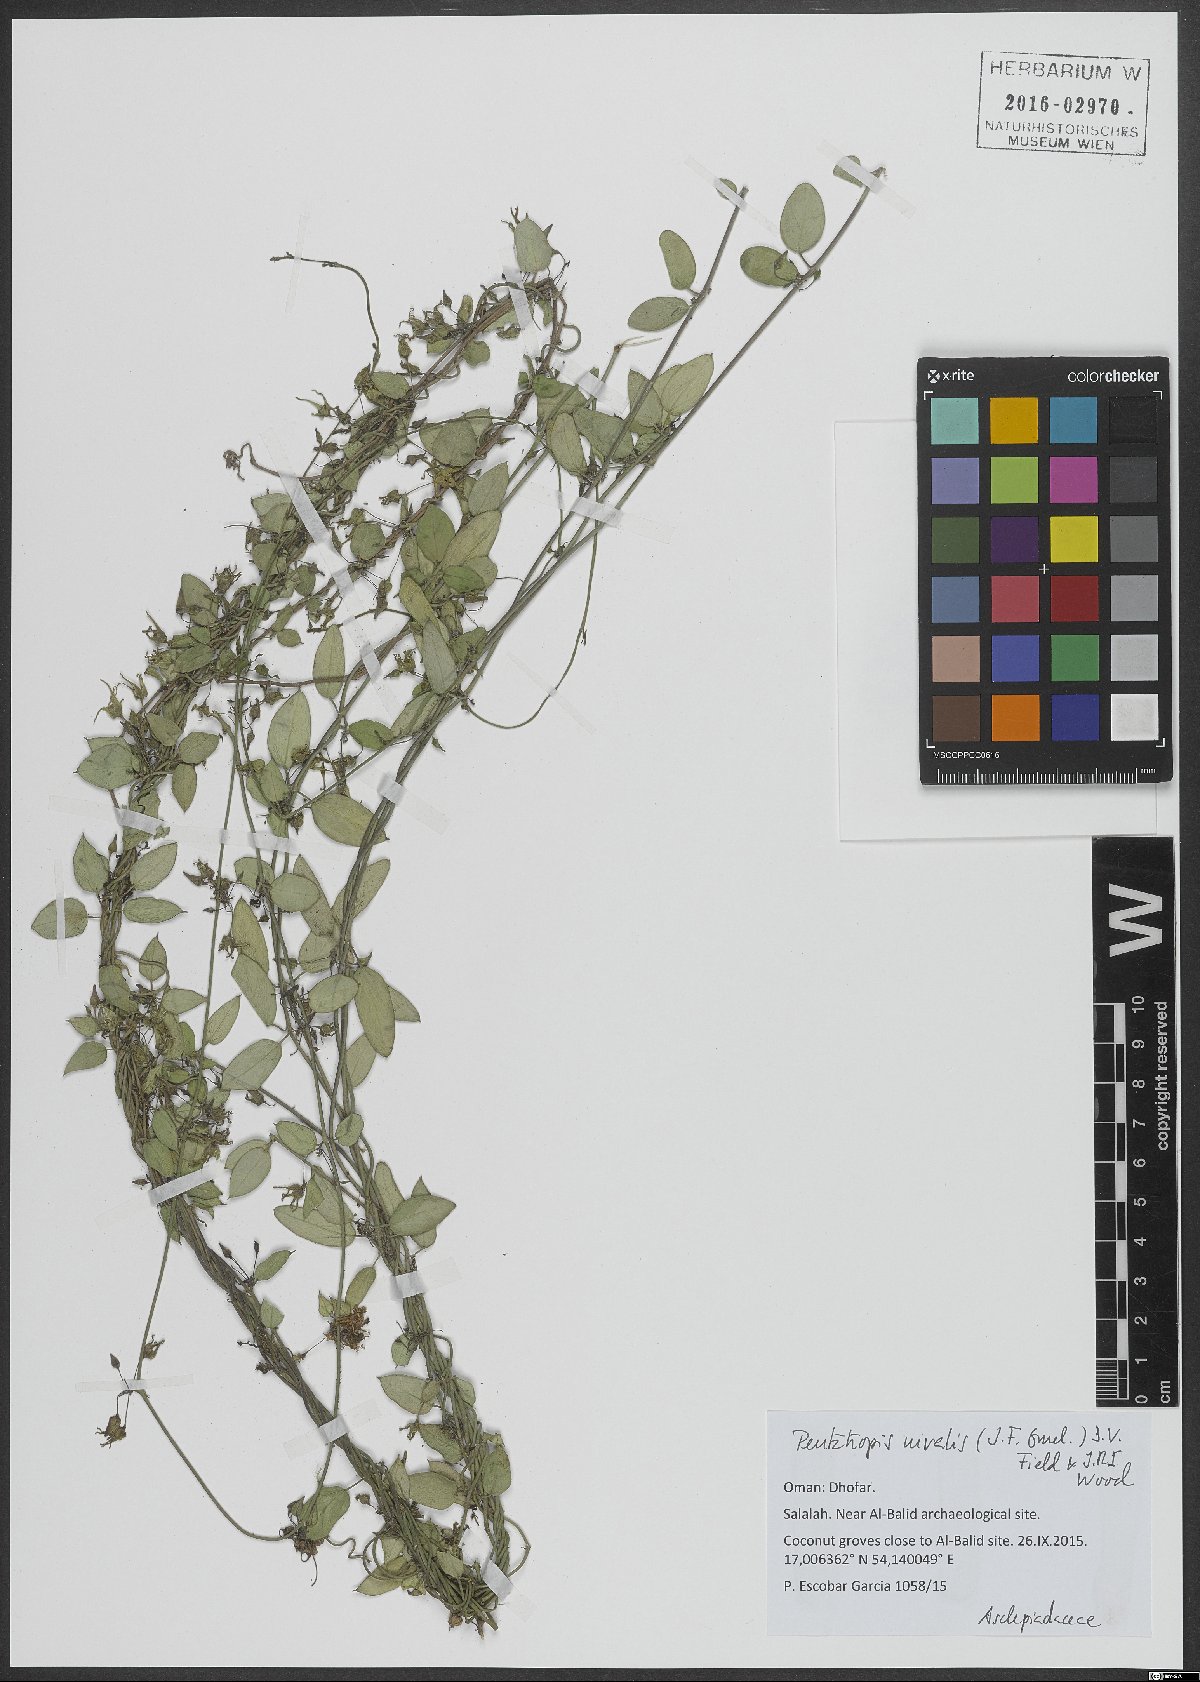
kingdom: Plantae
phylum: Tracheophyta
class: Magnoliopsida
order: Gentianales
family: Apocynaceae
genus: Pentatropis
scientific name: Pentatropis nivalis
